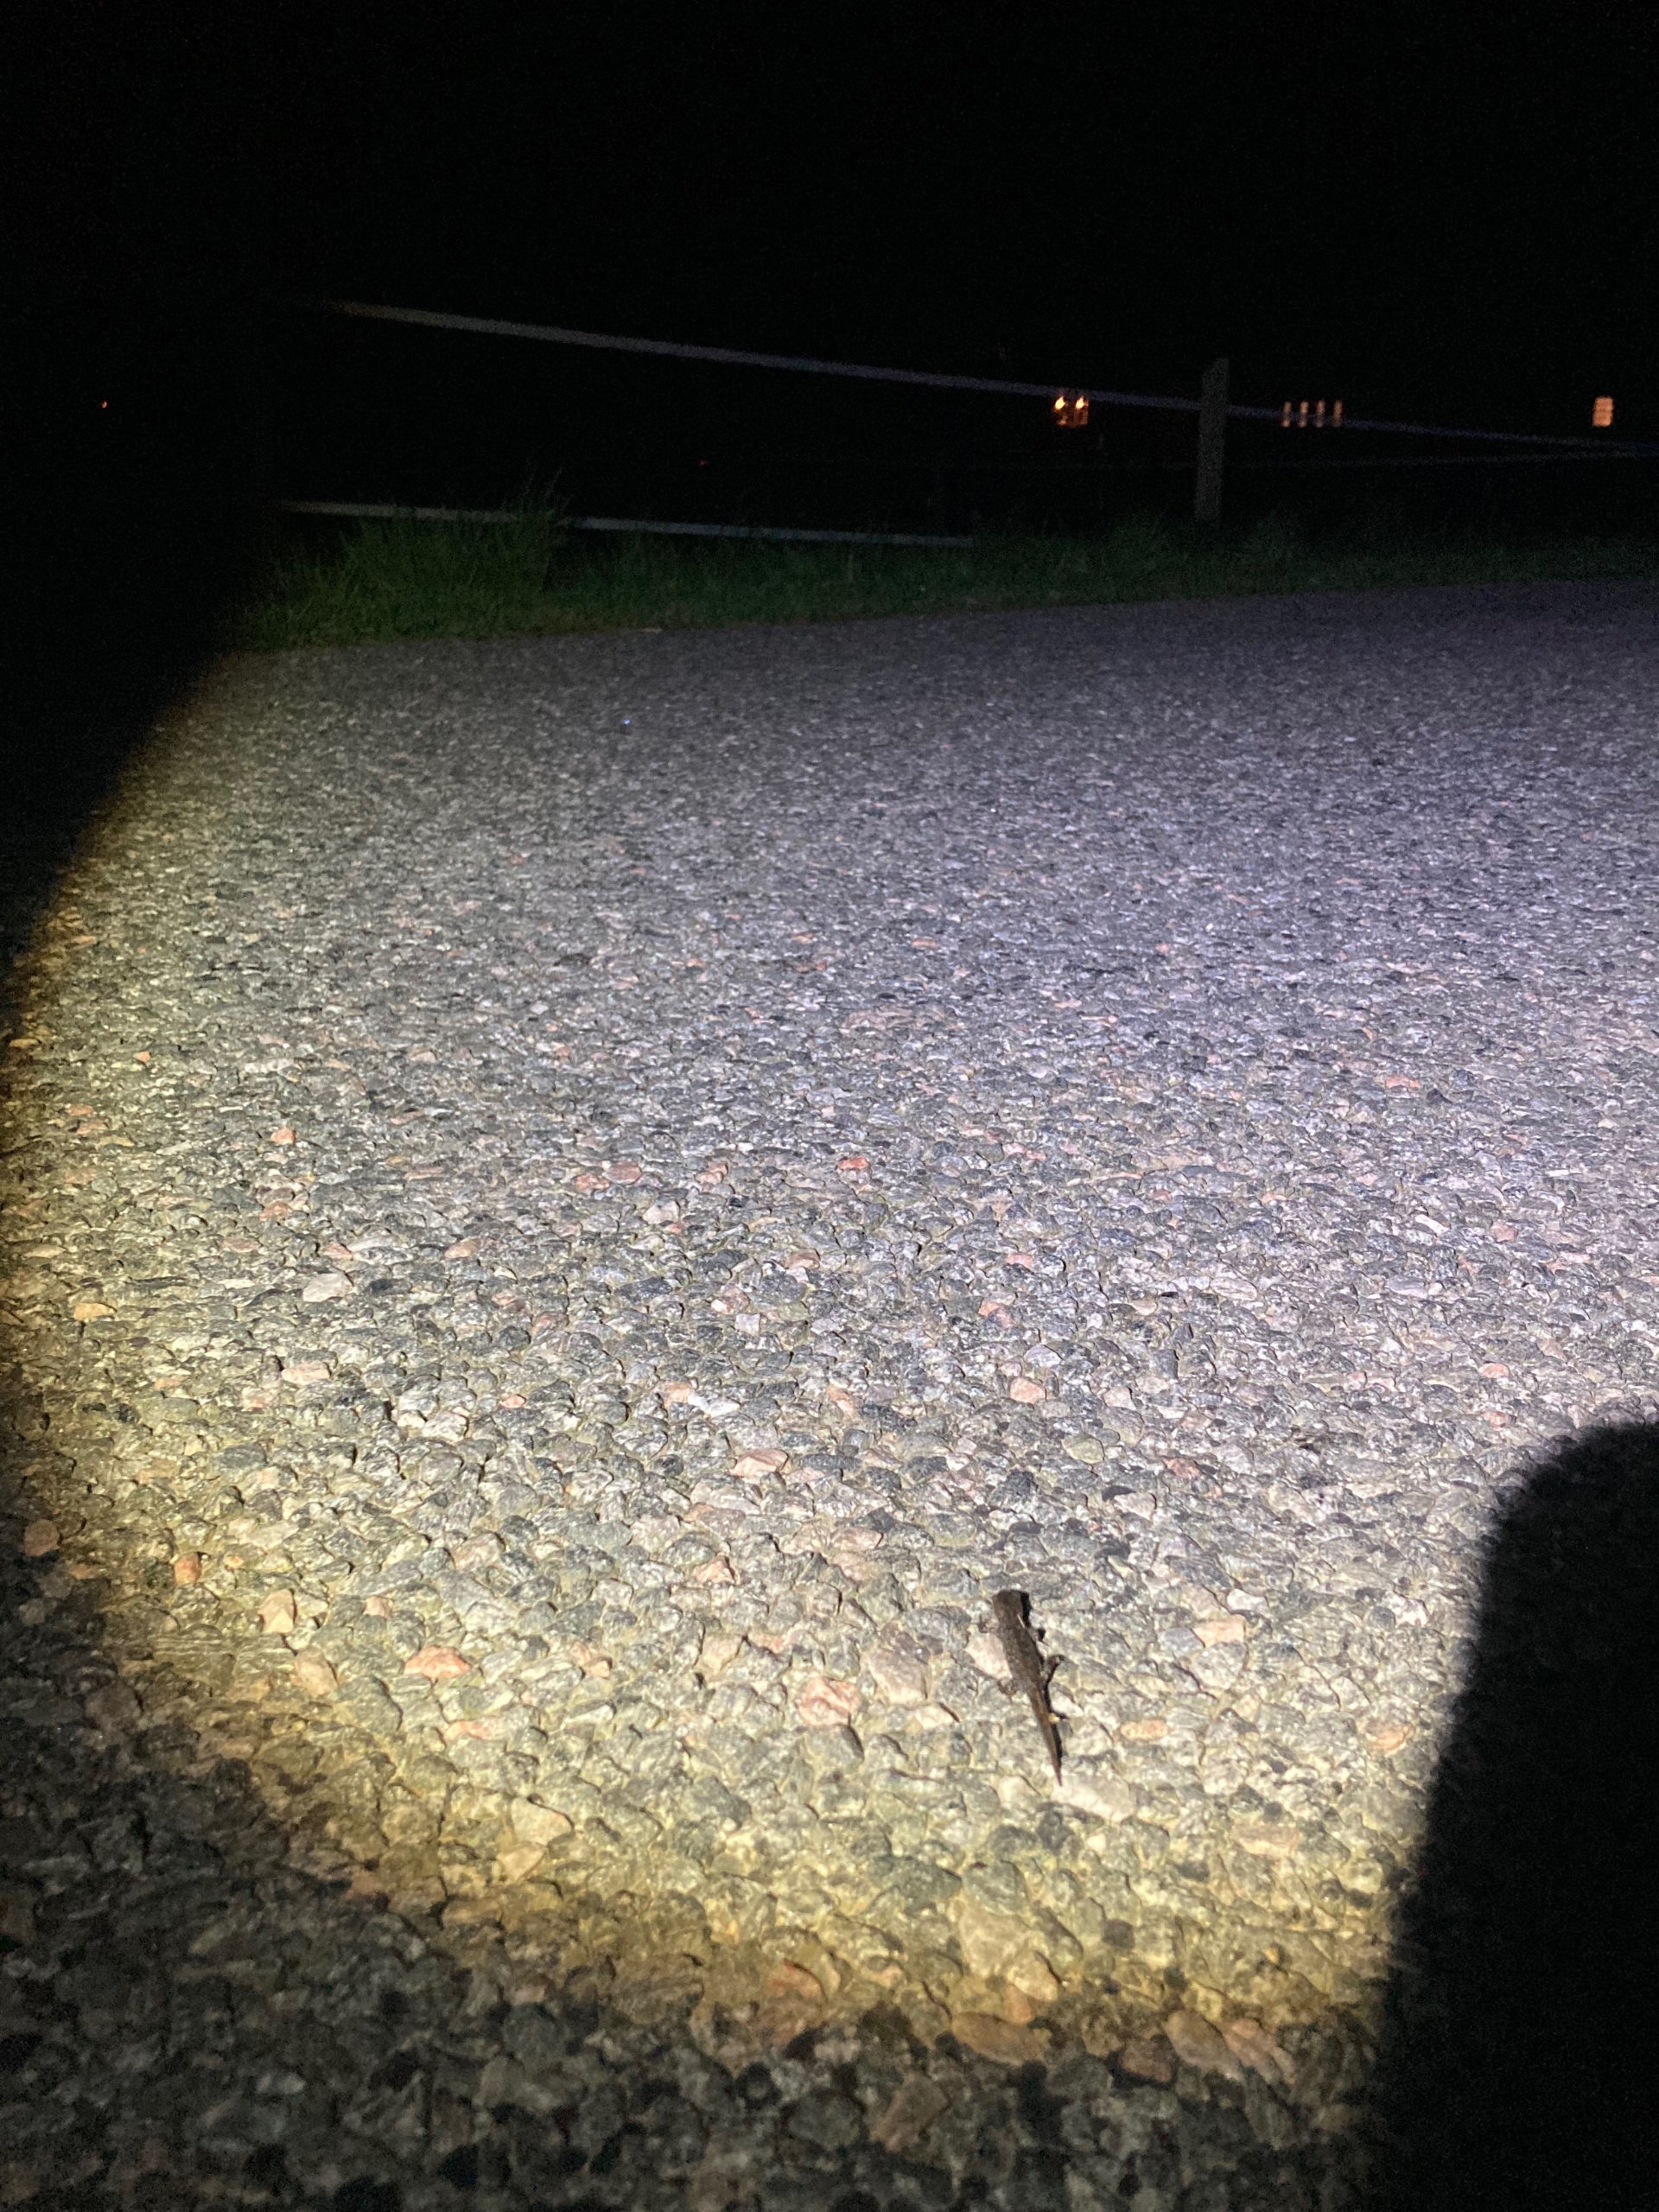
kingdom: Animalia
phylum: Chordata
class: Amphibia
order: Caudata
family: Salamandridae
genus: Triturus
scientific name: Triturus cristatus
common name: Stor vandsalamander
